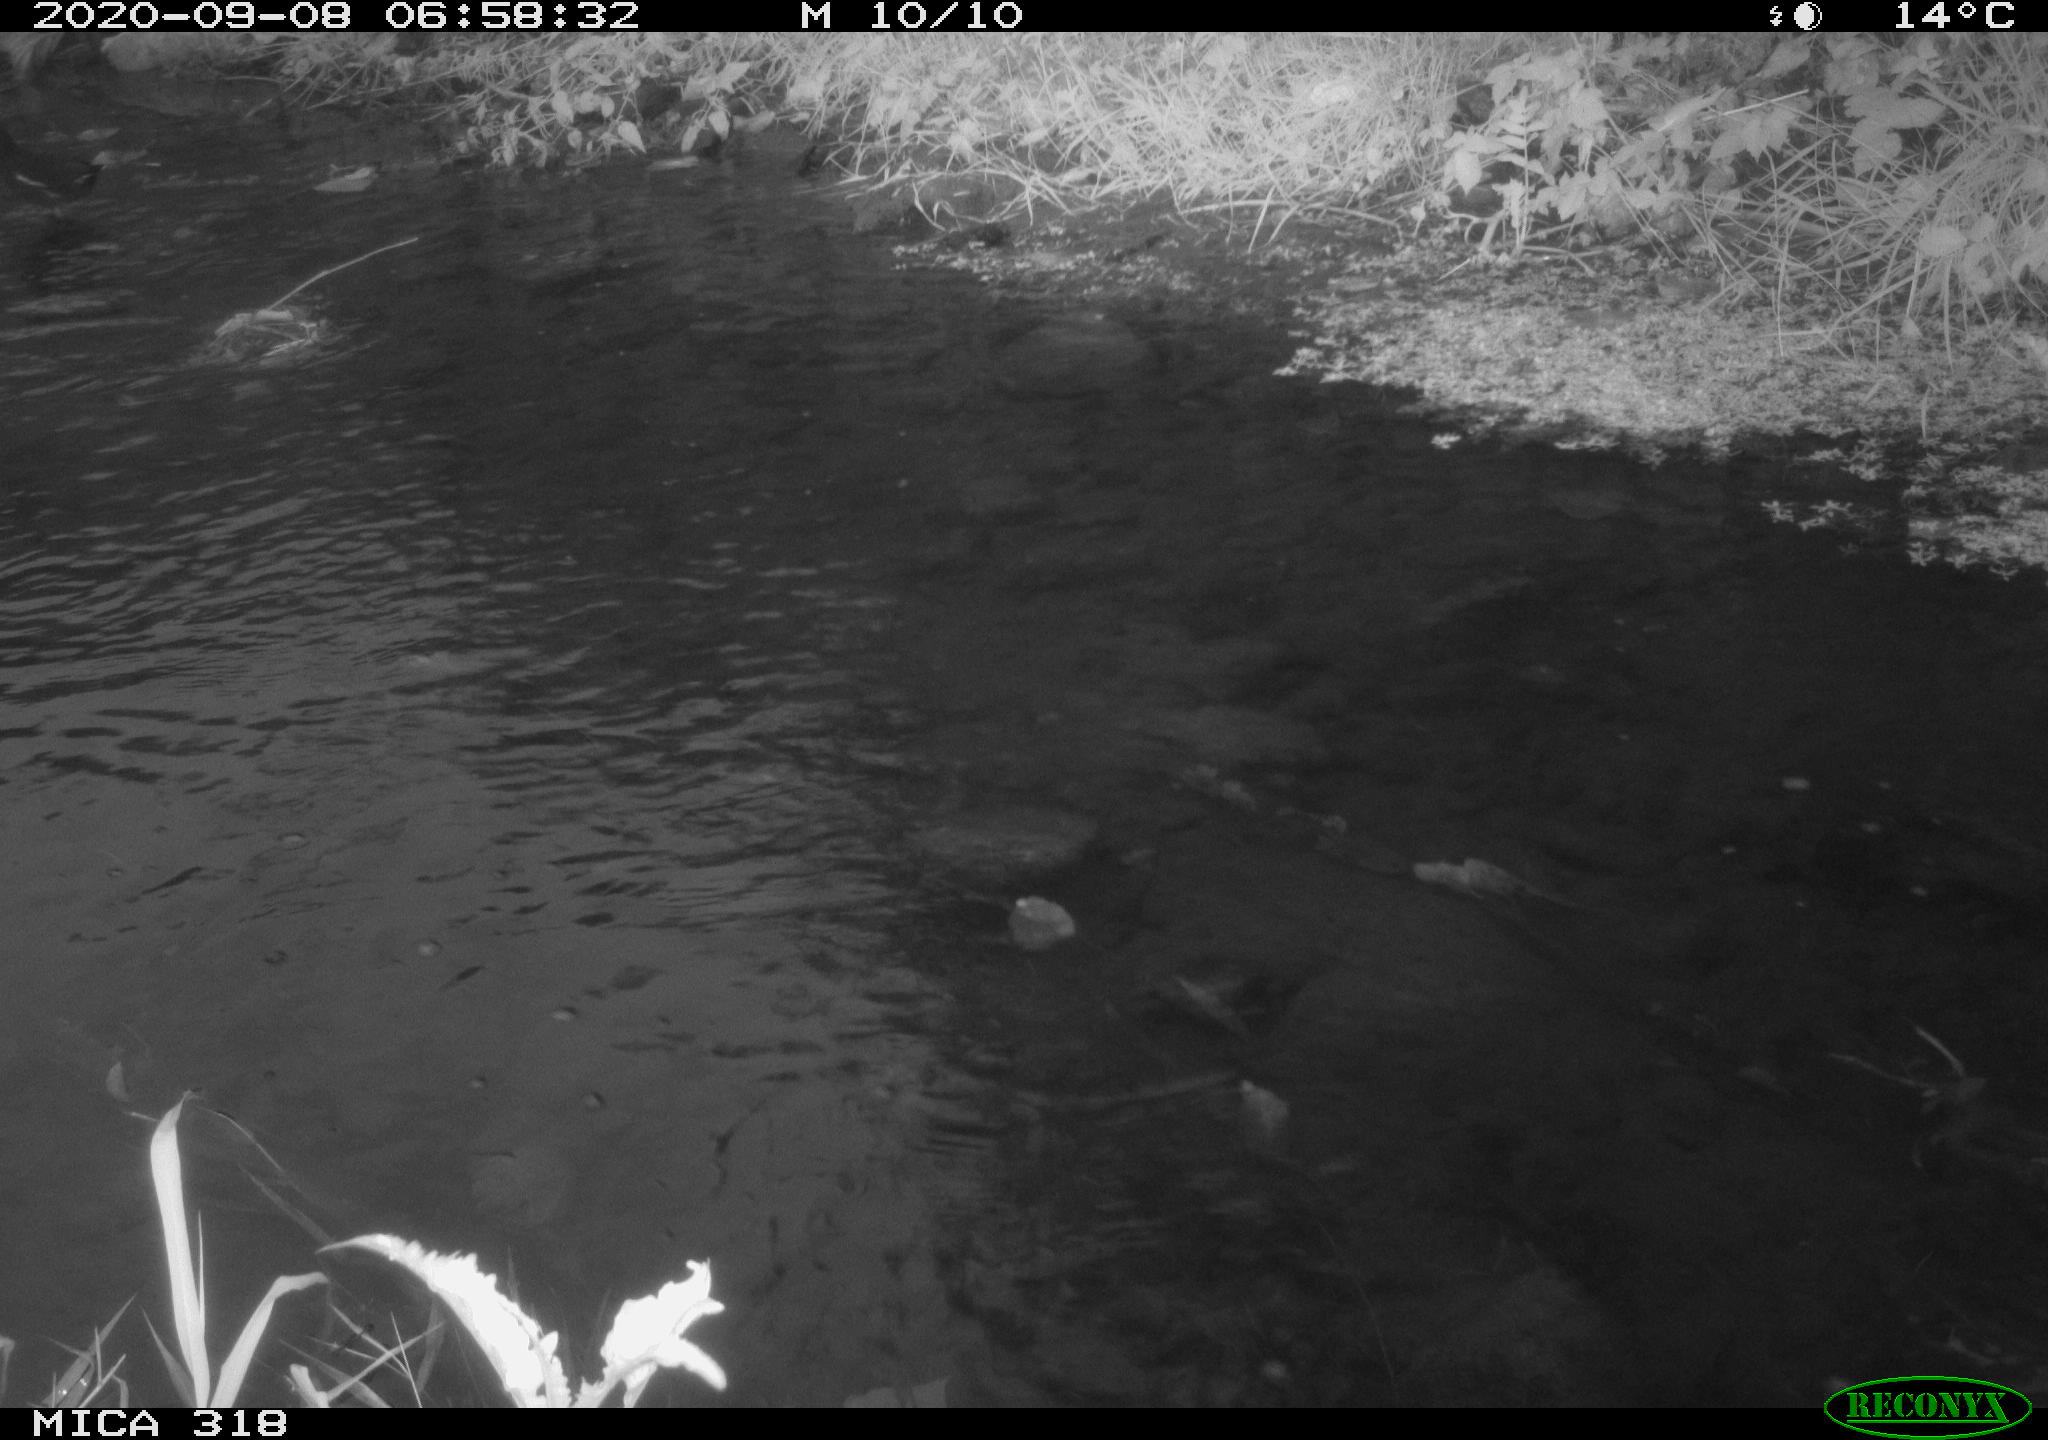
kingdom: Animalia
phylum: Chordata
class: Aves
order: Gruiformes
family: Rallidae
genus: Gallinula
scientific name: Gallinula chloropus
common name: Common moorhen
